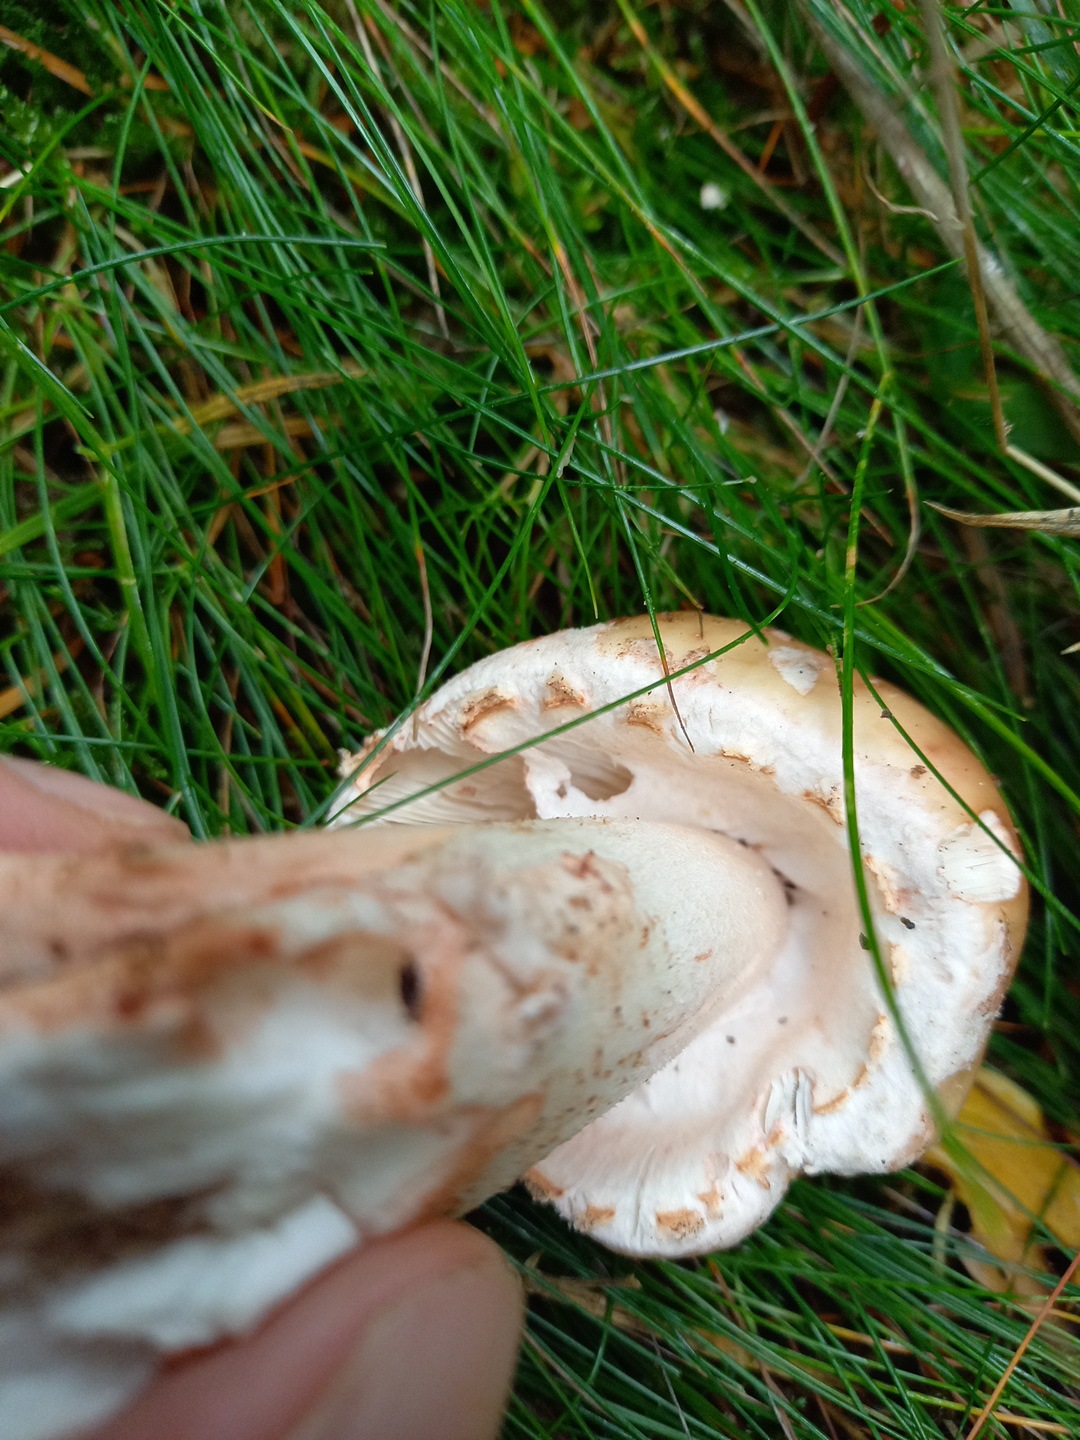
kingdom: Fungi
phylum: Basidiomycota
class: Agaricomycetes
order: Agaricales
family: Amanitaceae
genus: Amanita
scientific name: Amanita rubescens
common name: rødmende fluesvamp
